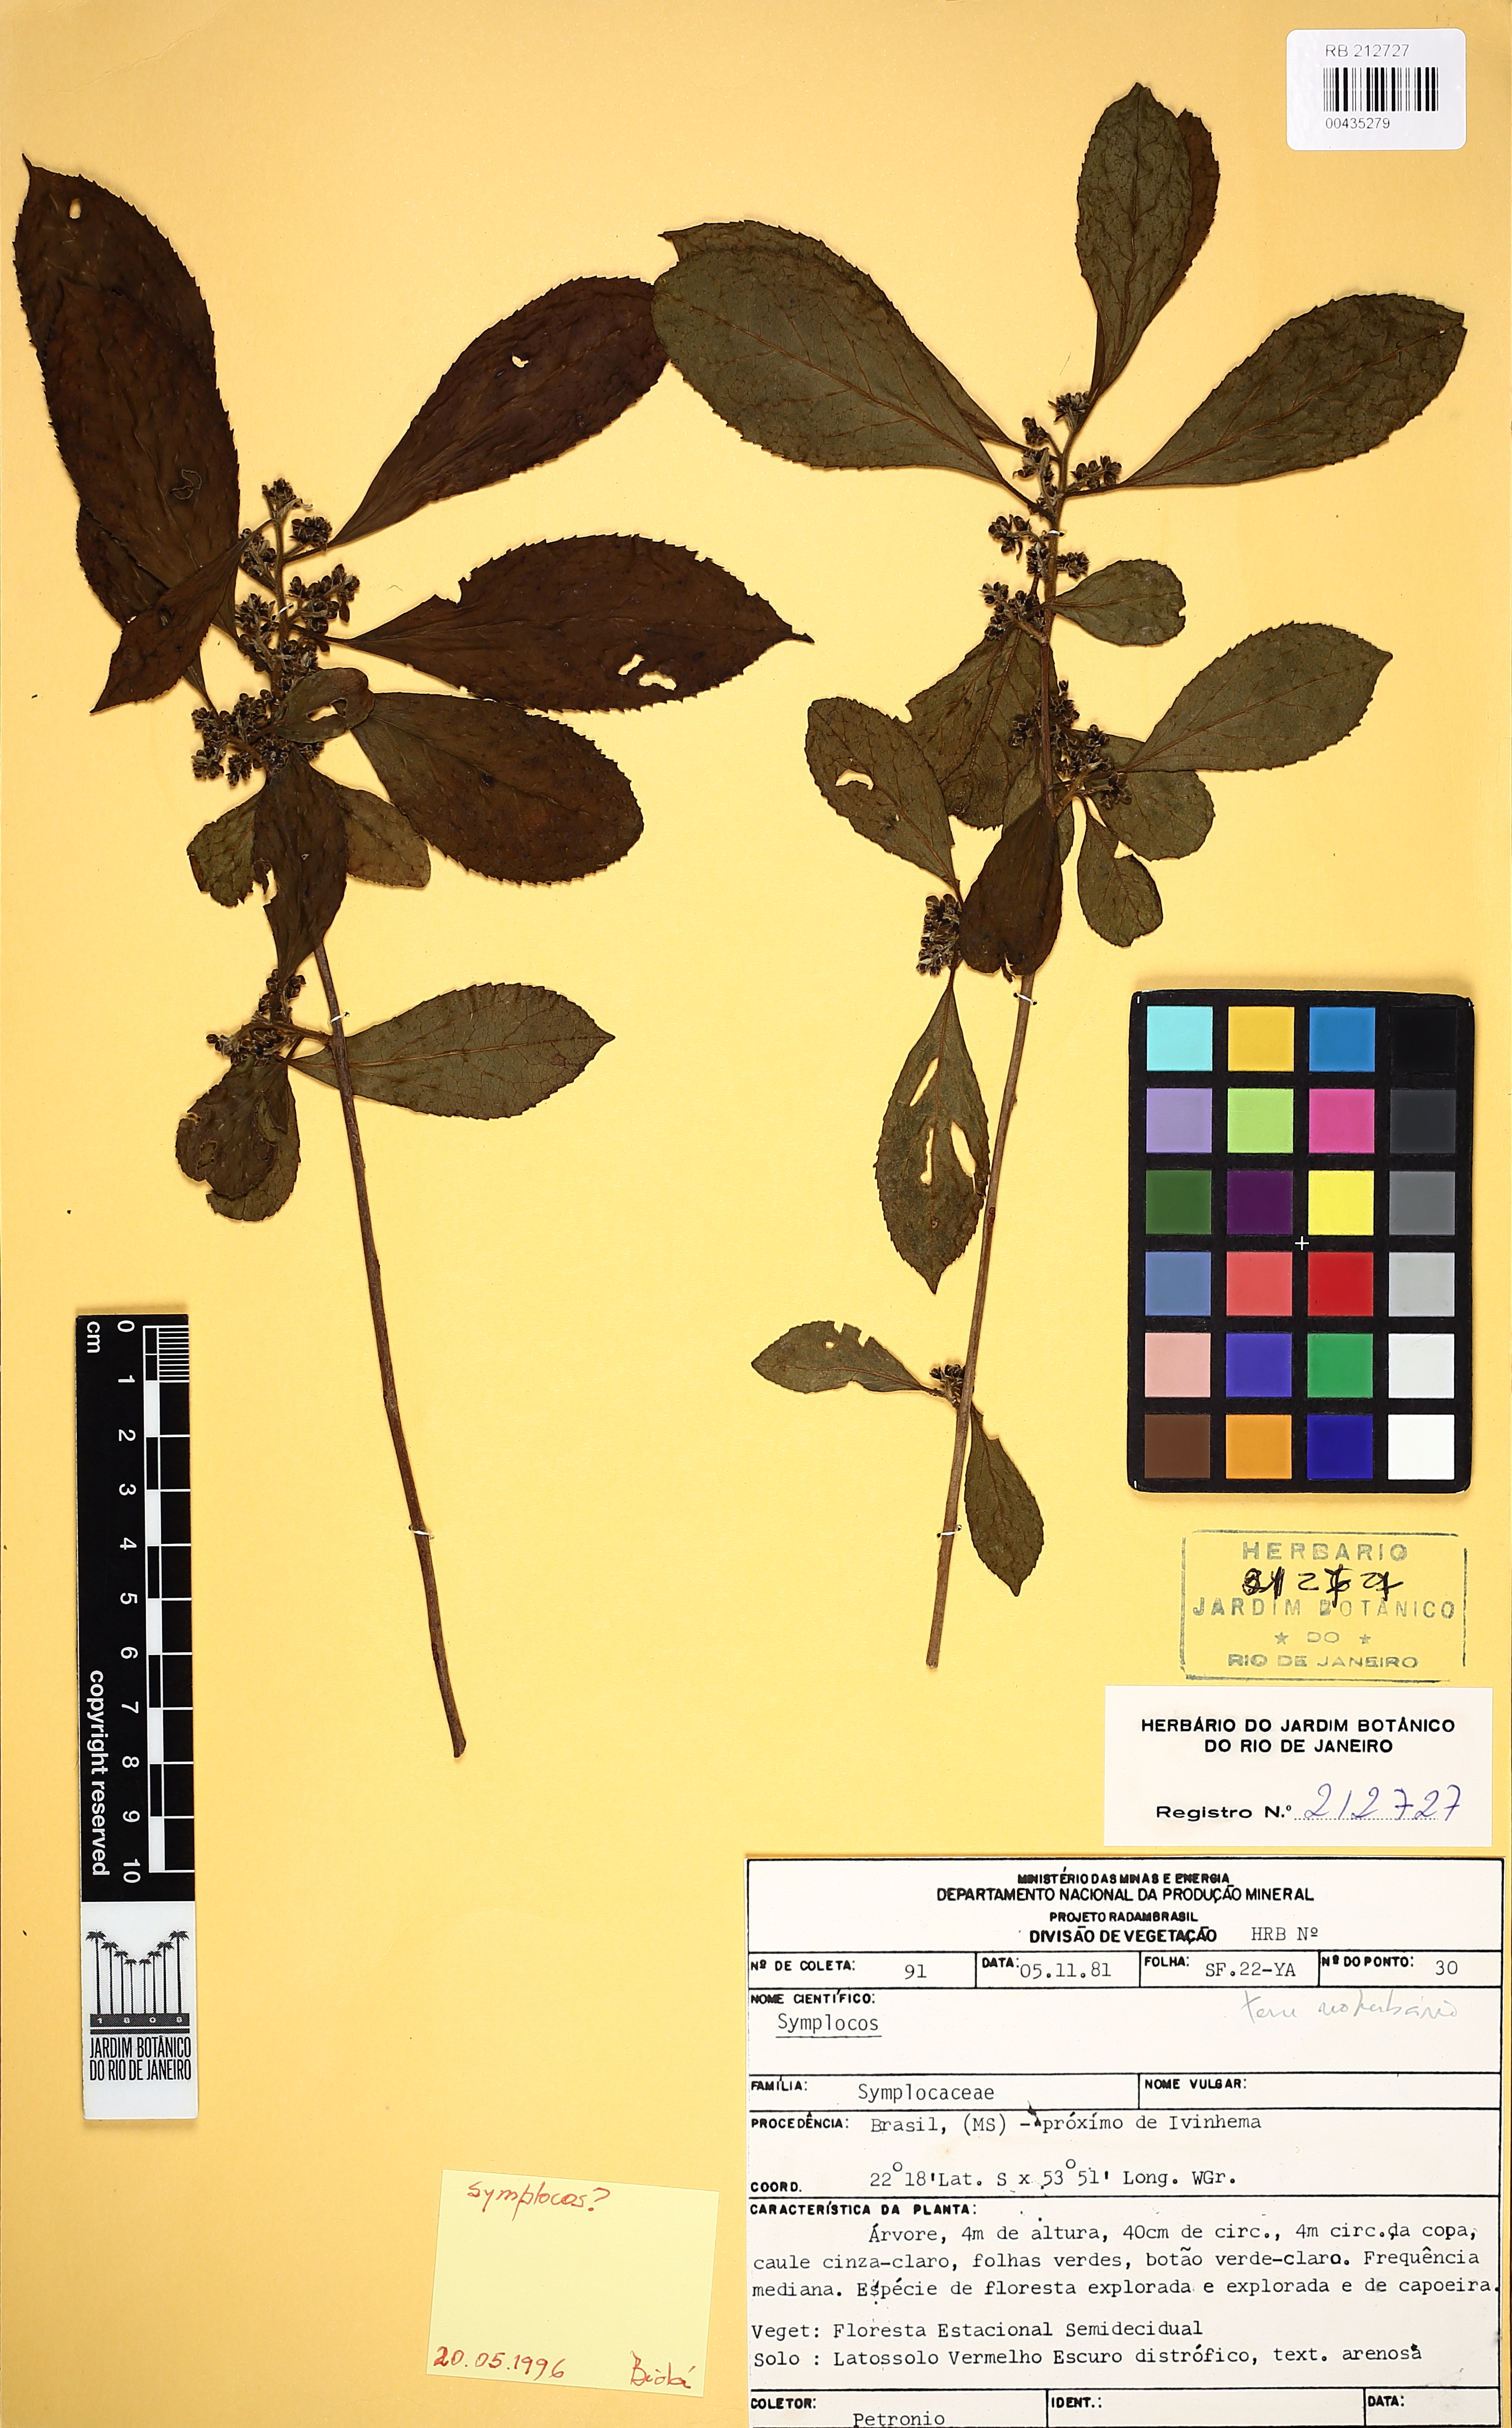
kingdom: Plantae
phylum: Tracheophyta
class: Magnoliopsida
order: Ericales
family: Symplocaceae
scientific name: Symplocaceae
